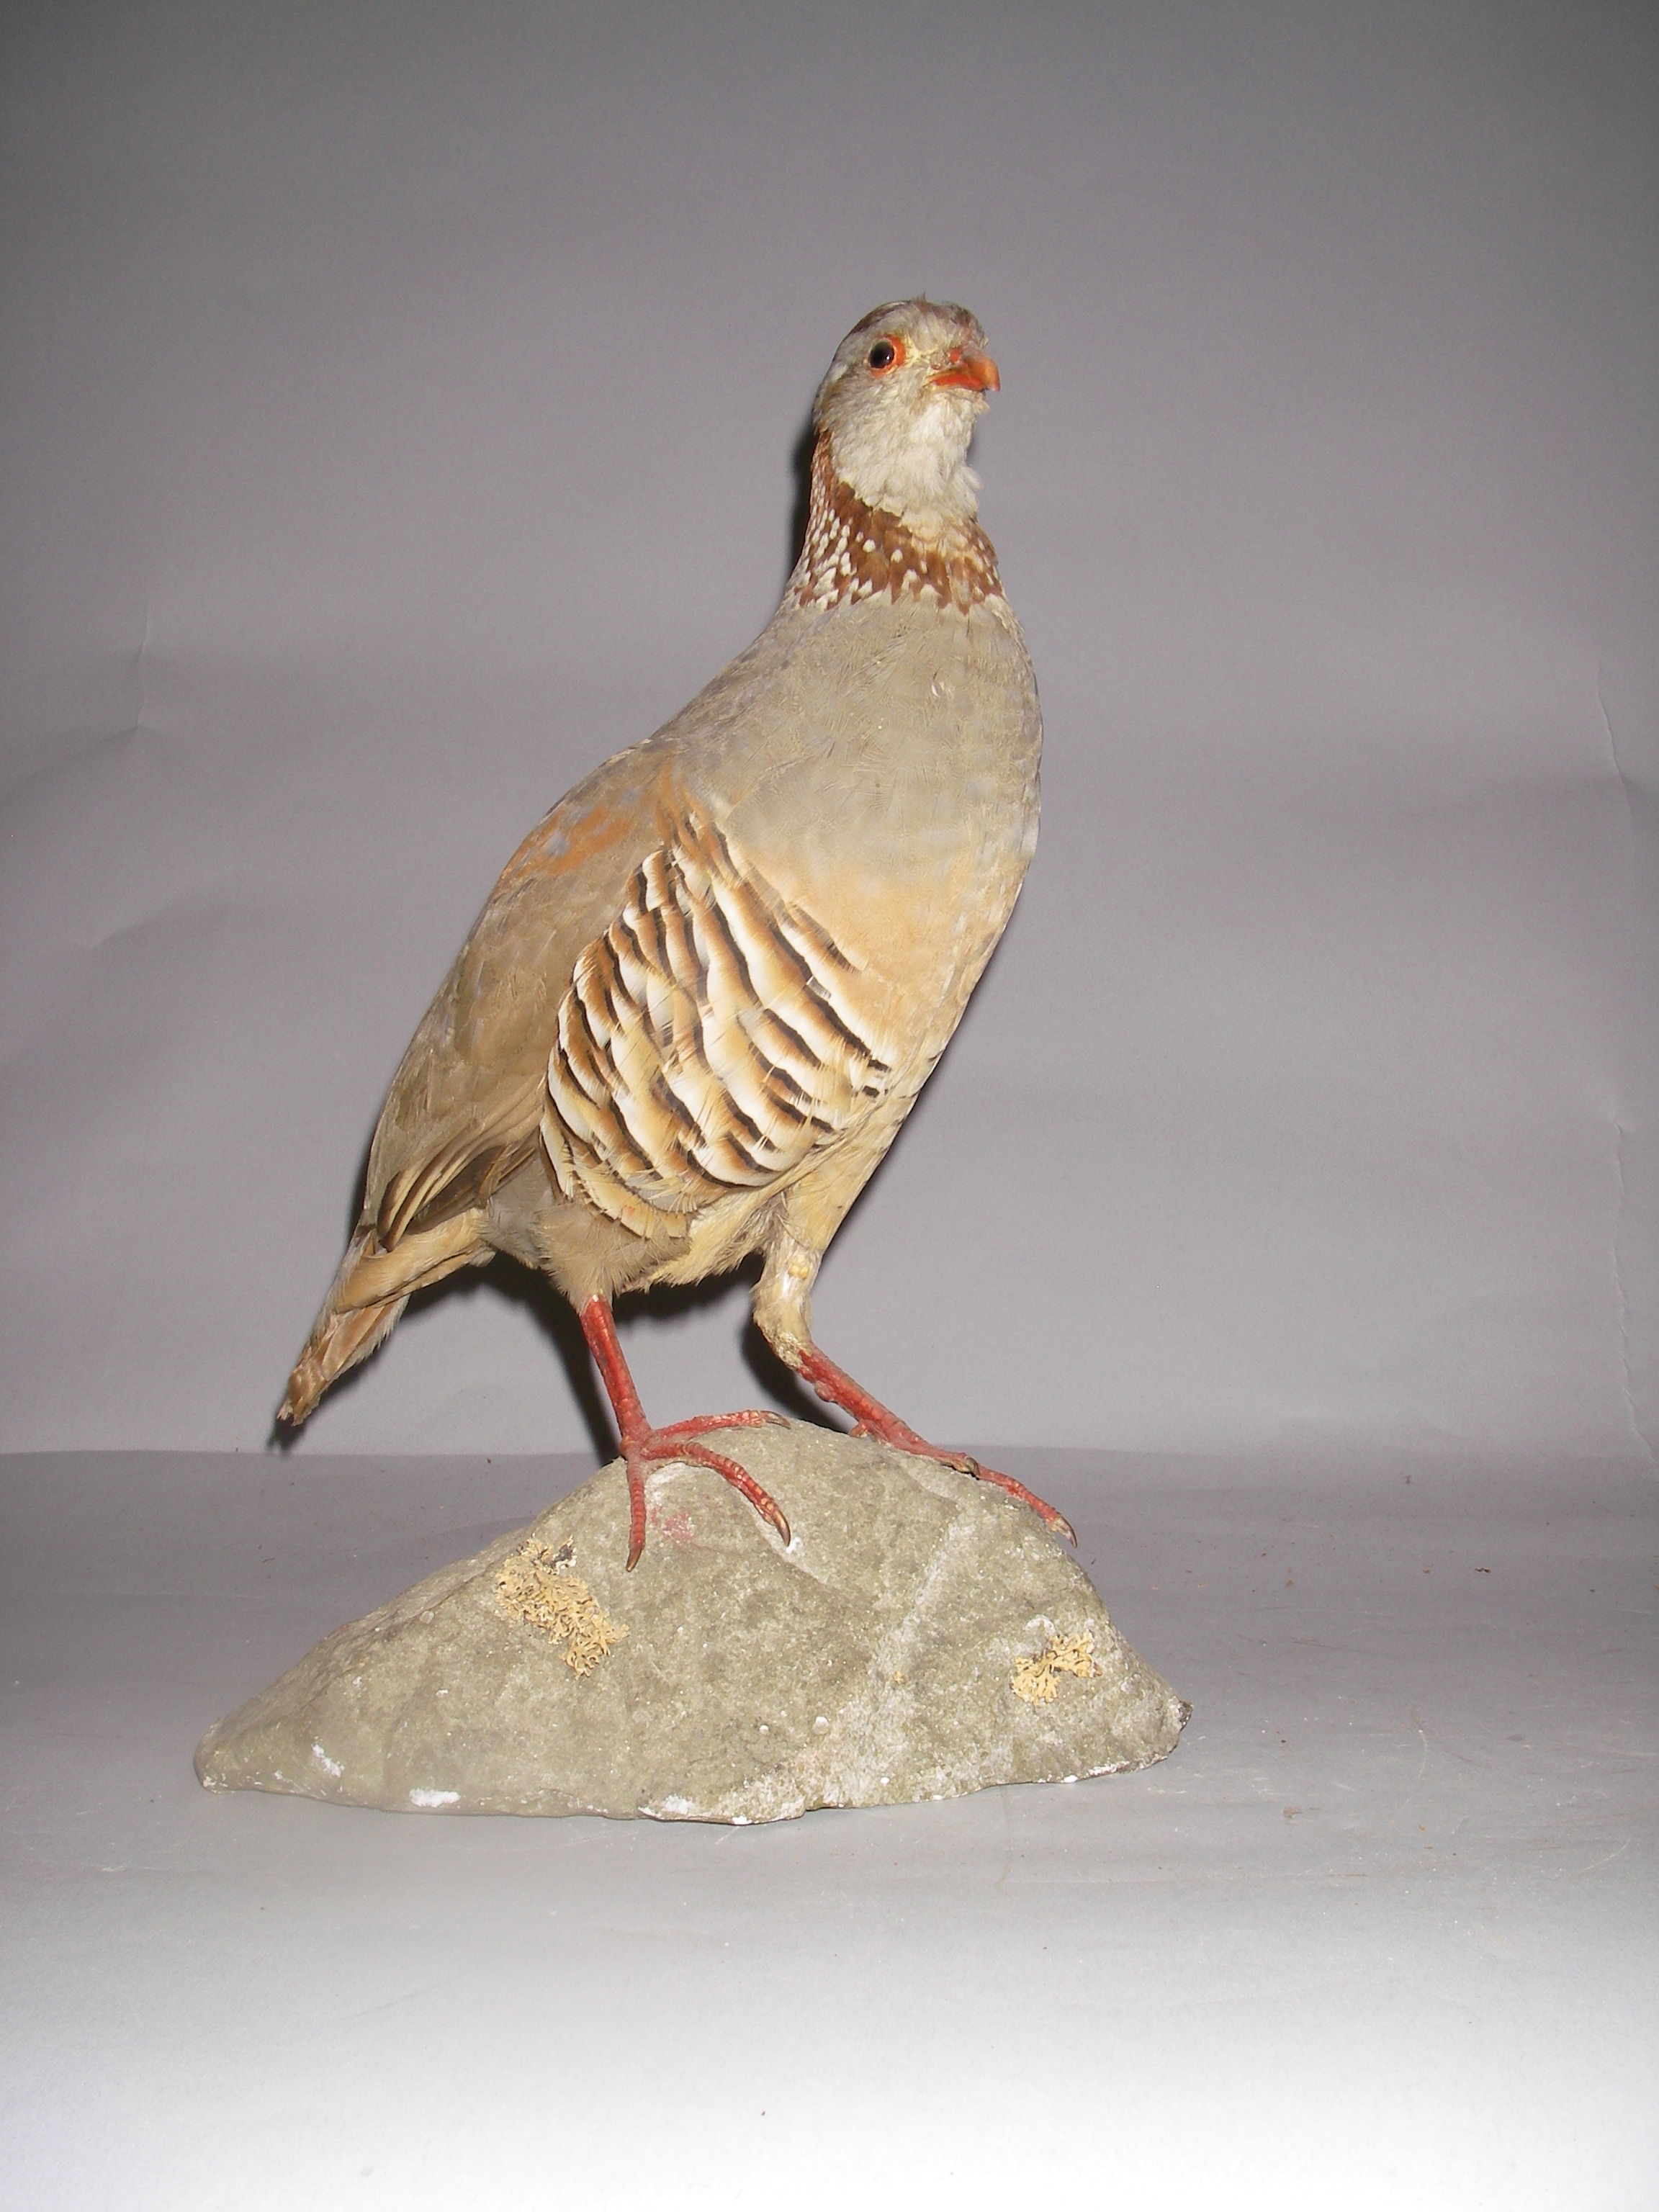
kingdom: Animalia
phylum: Chordata
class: Aves
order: Galliformes
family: Phasianidae
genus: Alectoris
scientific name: Alectoris barbara
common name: Barbary partridge
